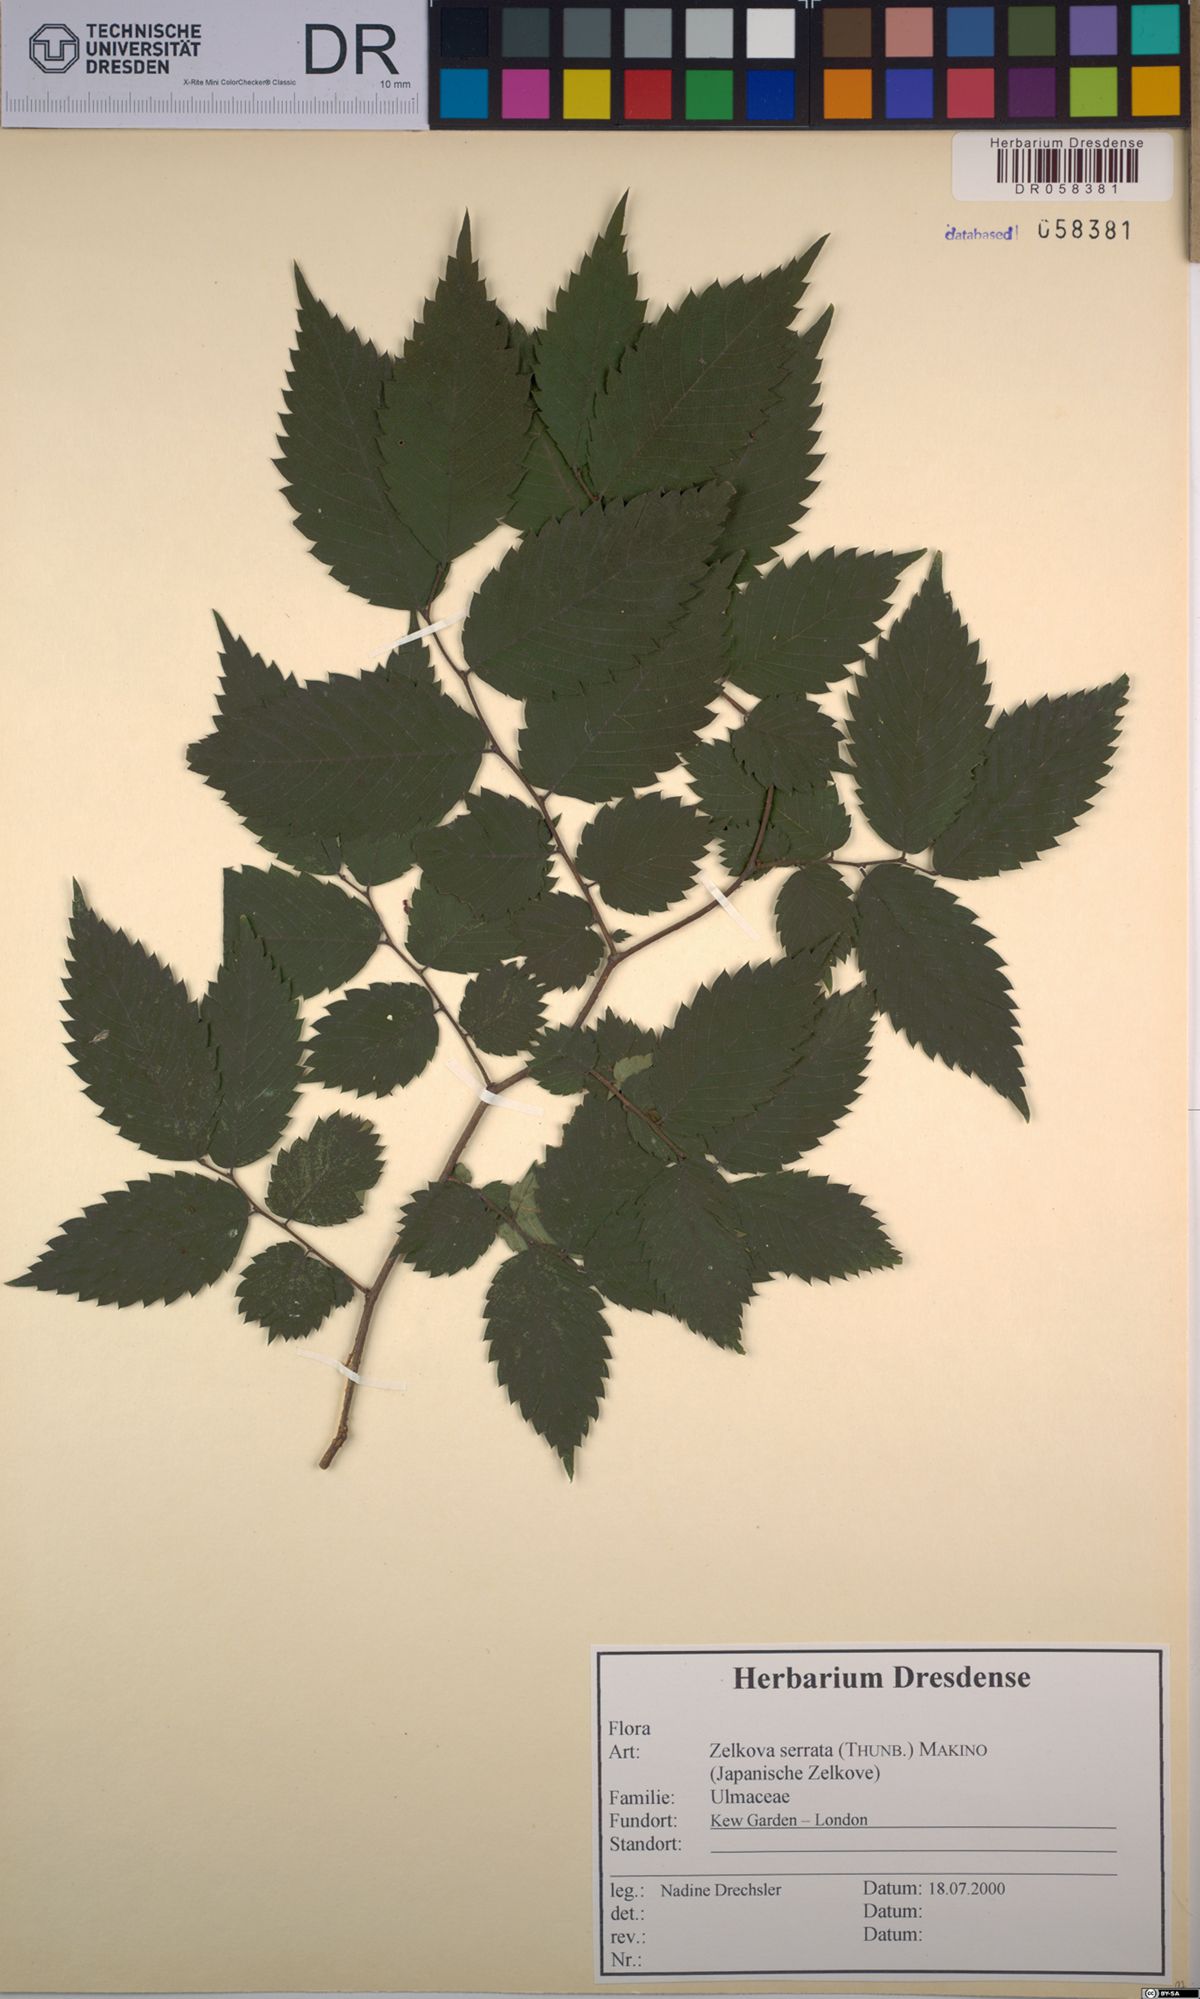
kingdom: Plantae
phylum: Tracheophyta
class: Magnoliopsida
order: Rosales
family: Ulmaceae
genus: Zelkova
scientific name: Zelkova serrata
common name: Japanese zelkova
